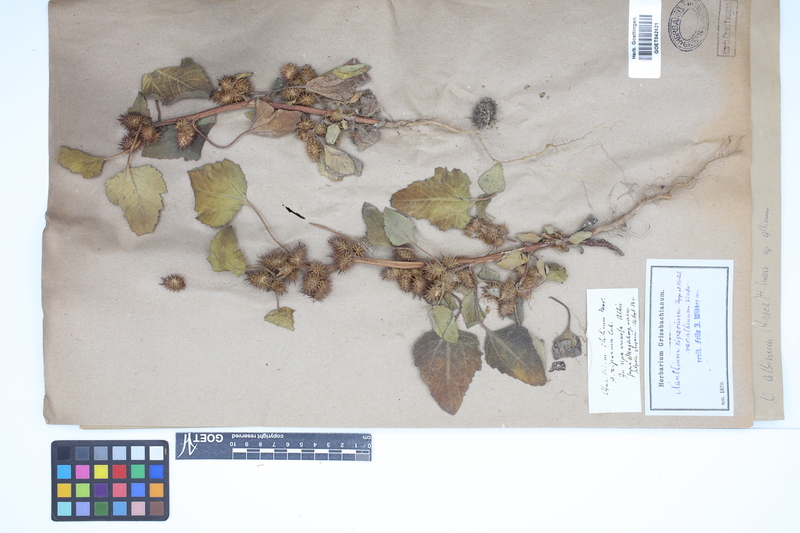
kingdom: Plantae
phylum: Tracheophyta
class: Magnoliopsida
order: Asterales
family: Asteraceae
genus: Xanthium
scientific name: Xanthium orientale
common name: Californian burr
